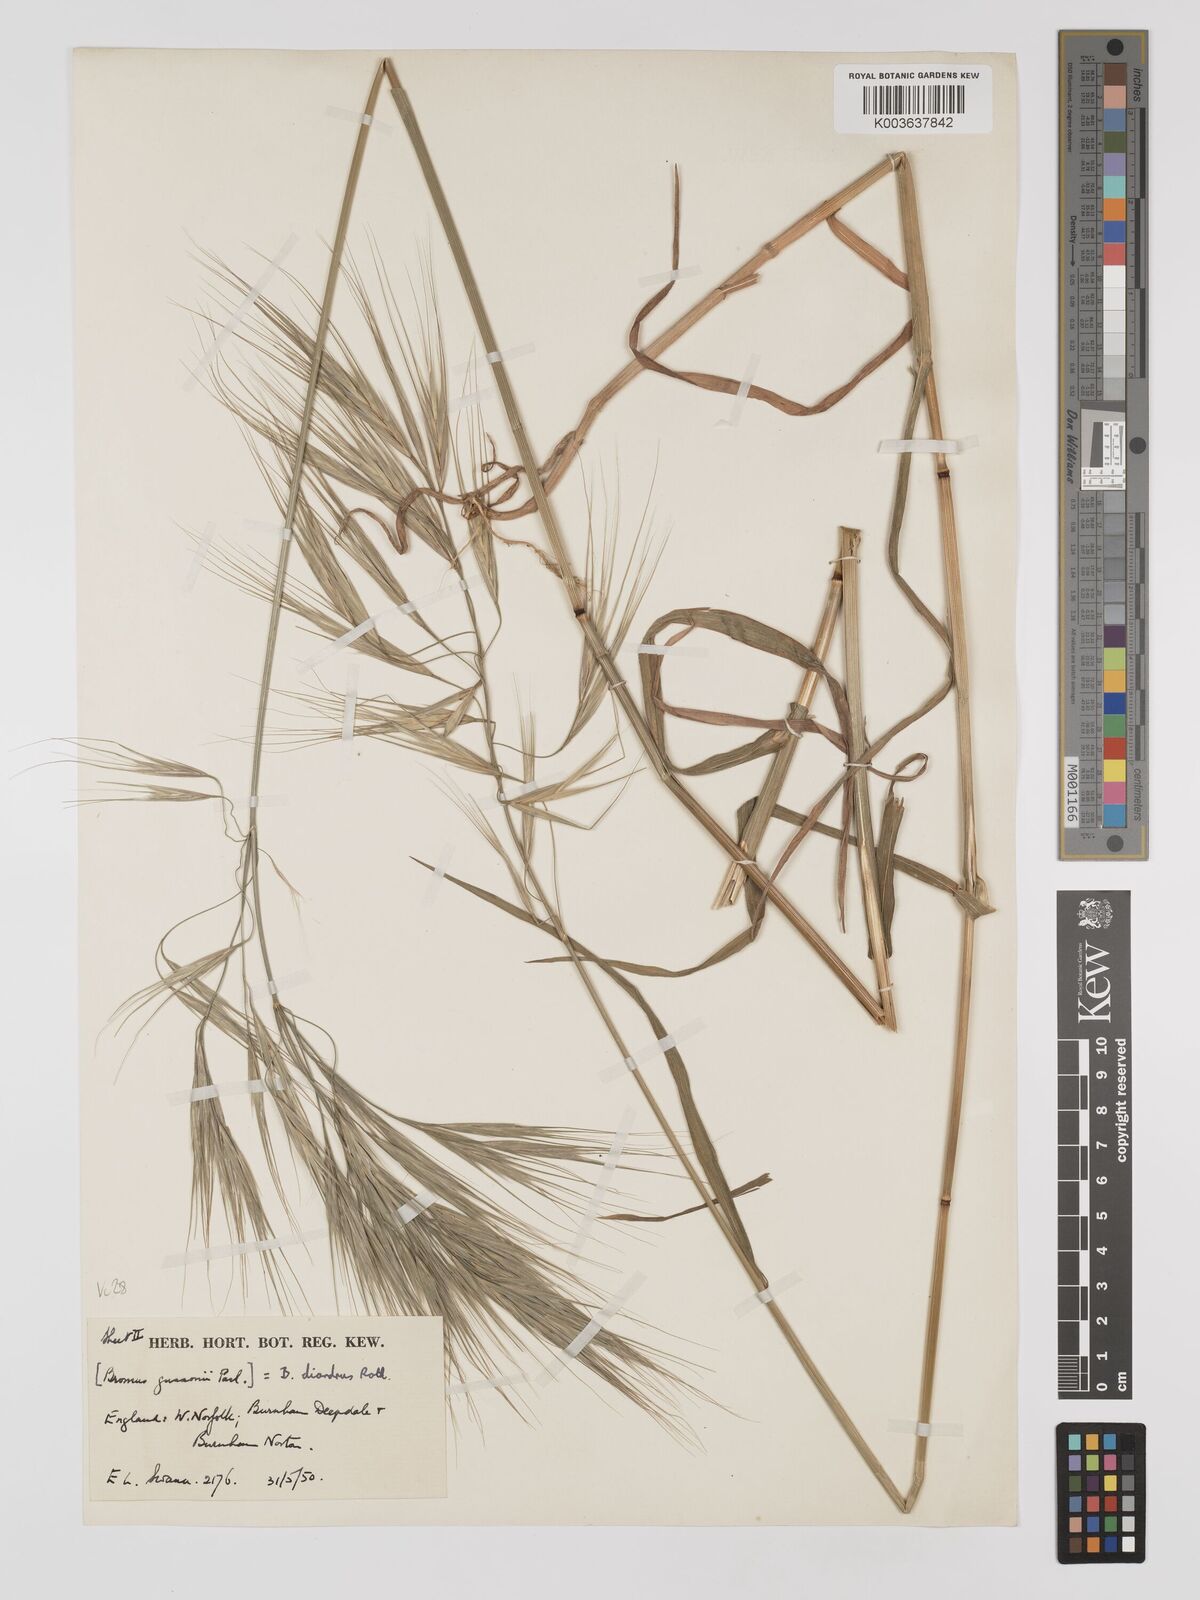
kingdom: Plantae
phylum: Tracheophyta
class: Liliopsida
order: Poales
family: Poaceae
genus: Bromus
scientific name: Bromus
